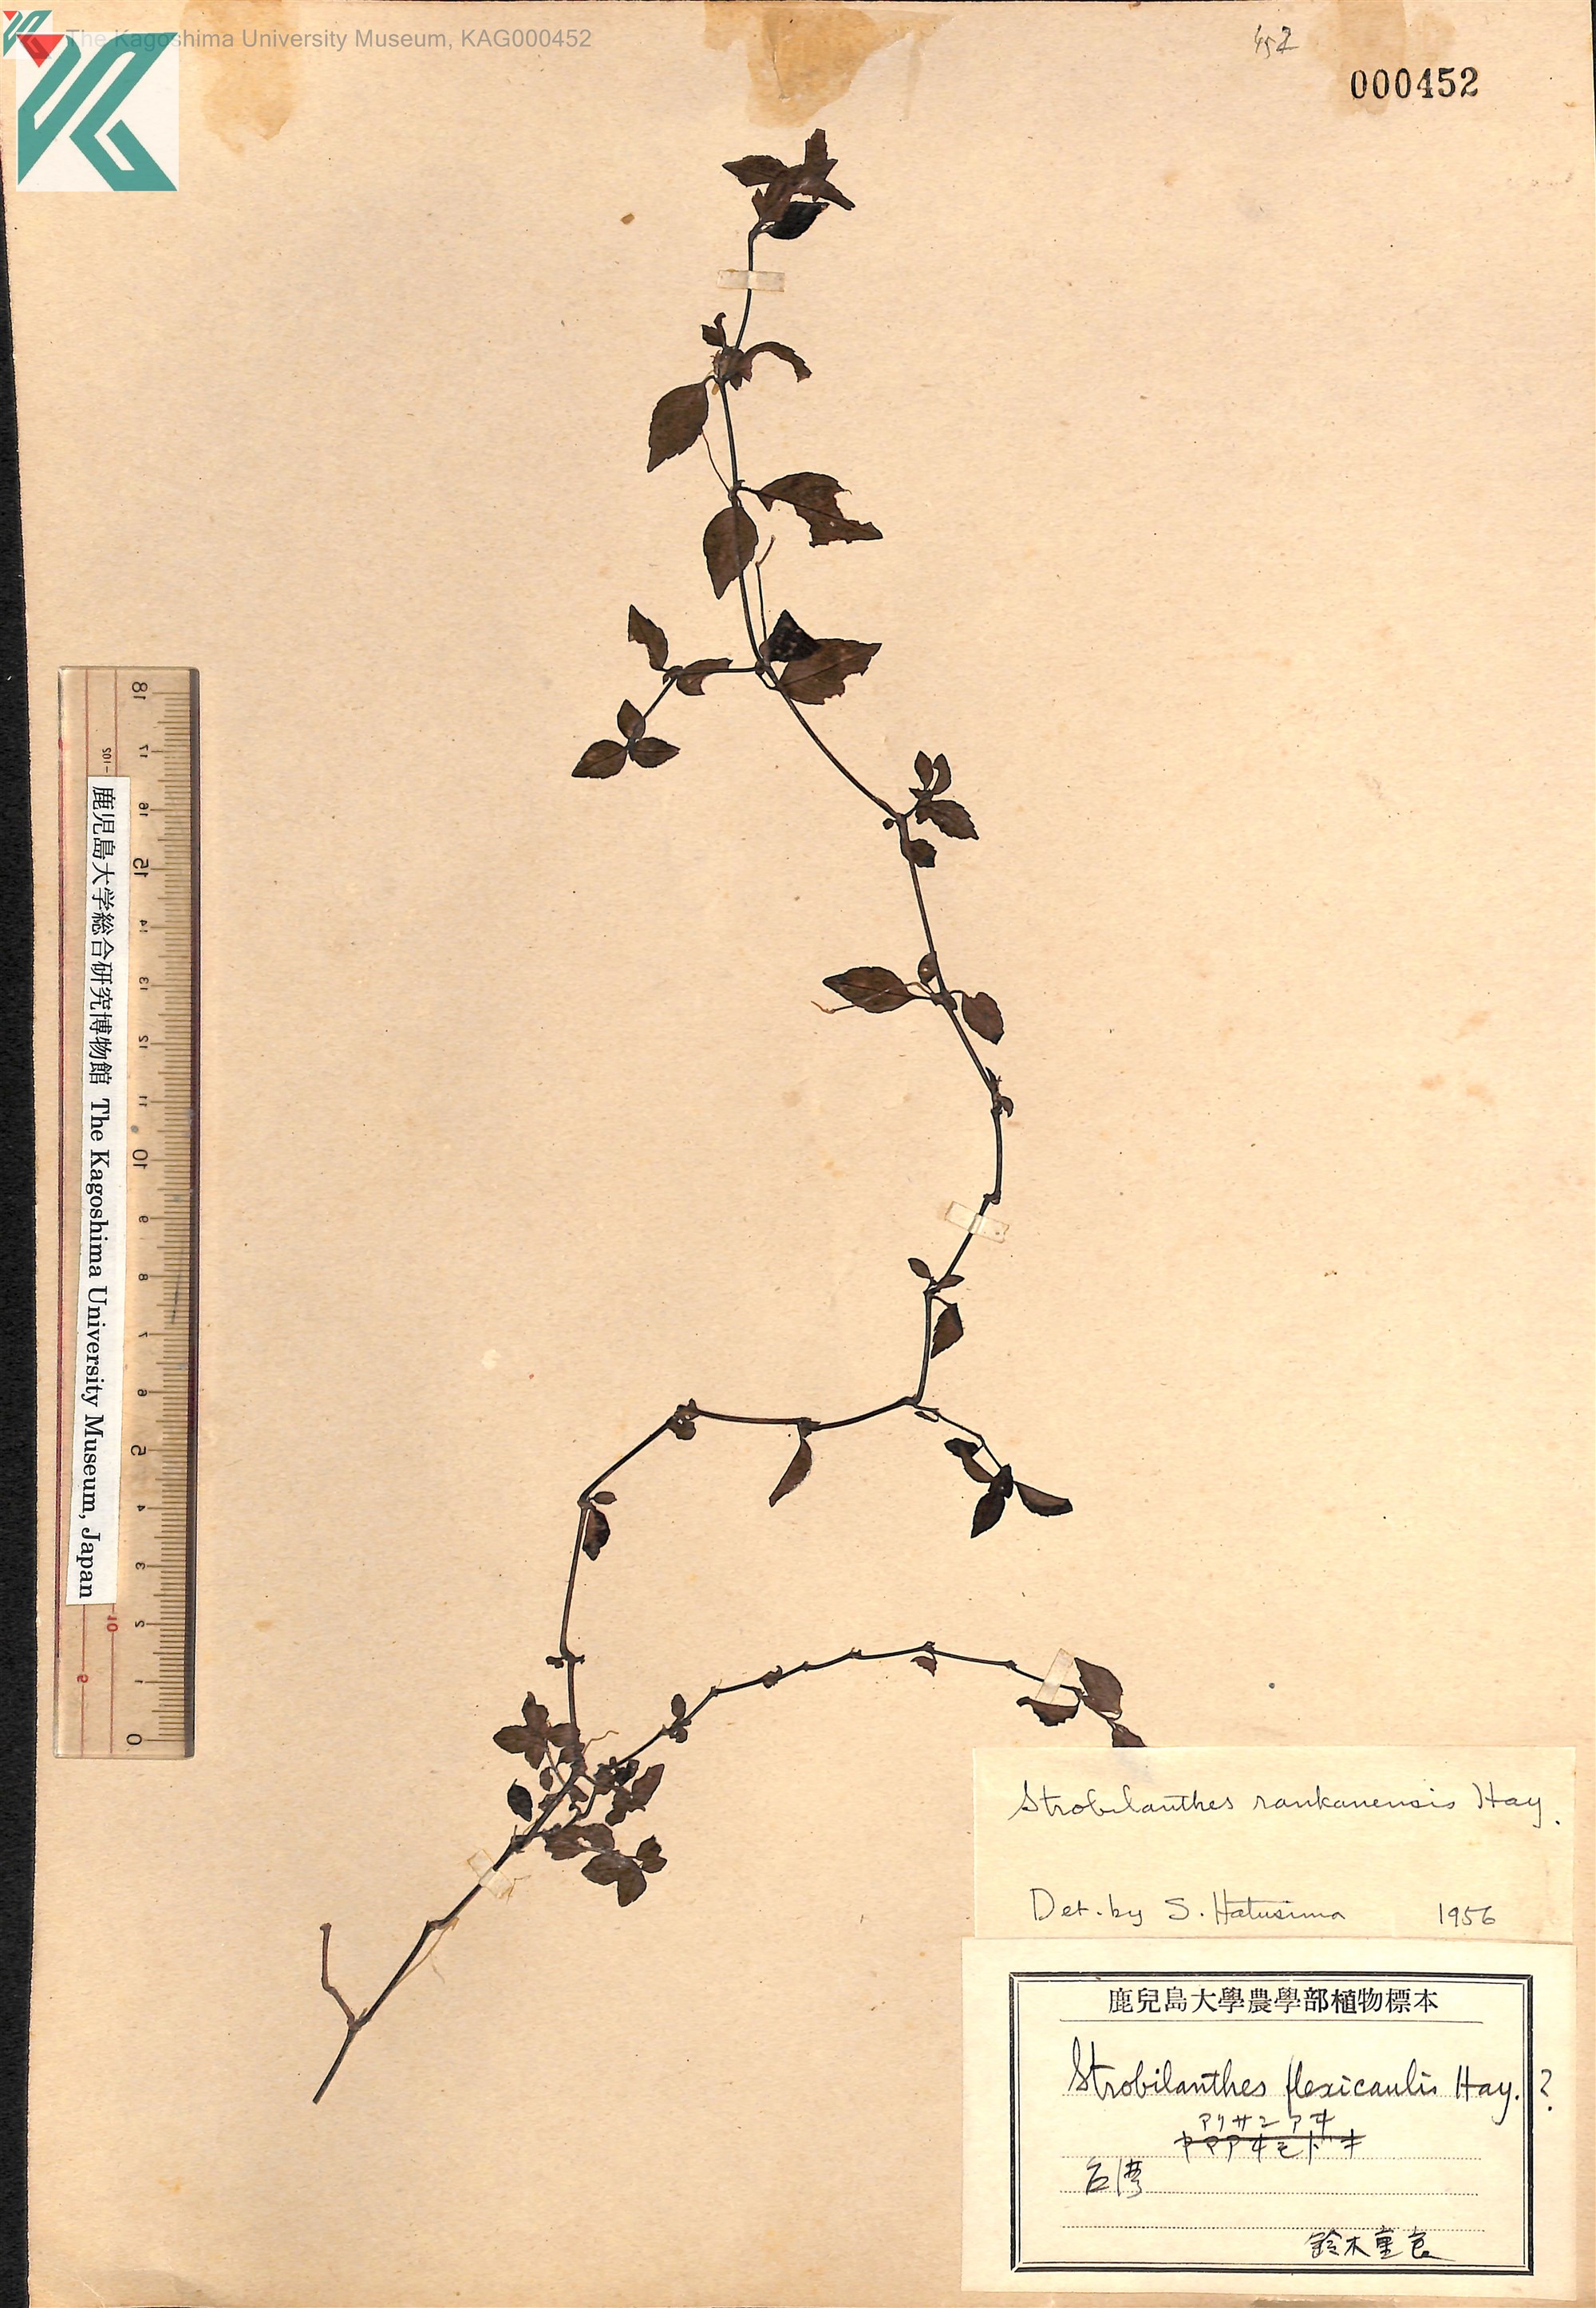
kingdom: Plantae
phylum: Tracheophyta
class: Magnoliopsida
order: Lamiales
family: Acanthaceae
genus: Strobilanthes
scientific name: Strobilanthes rankanensis
